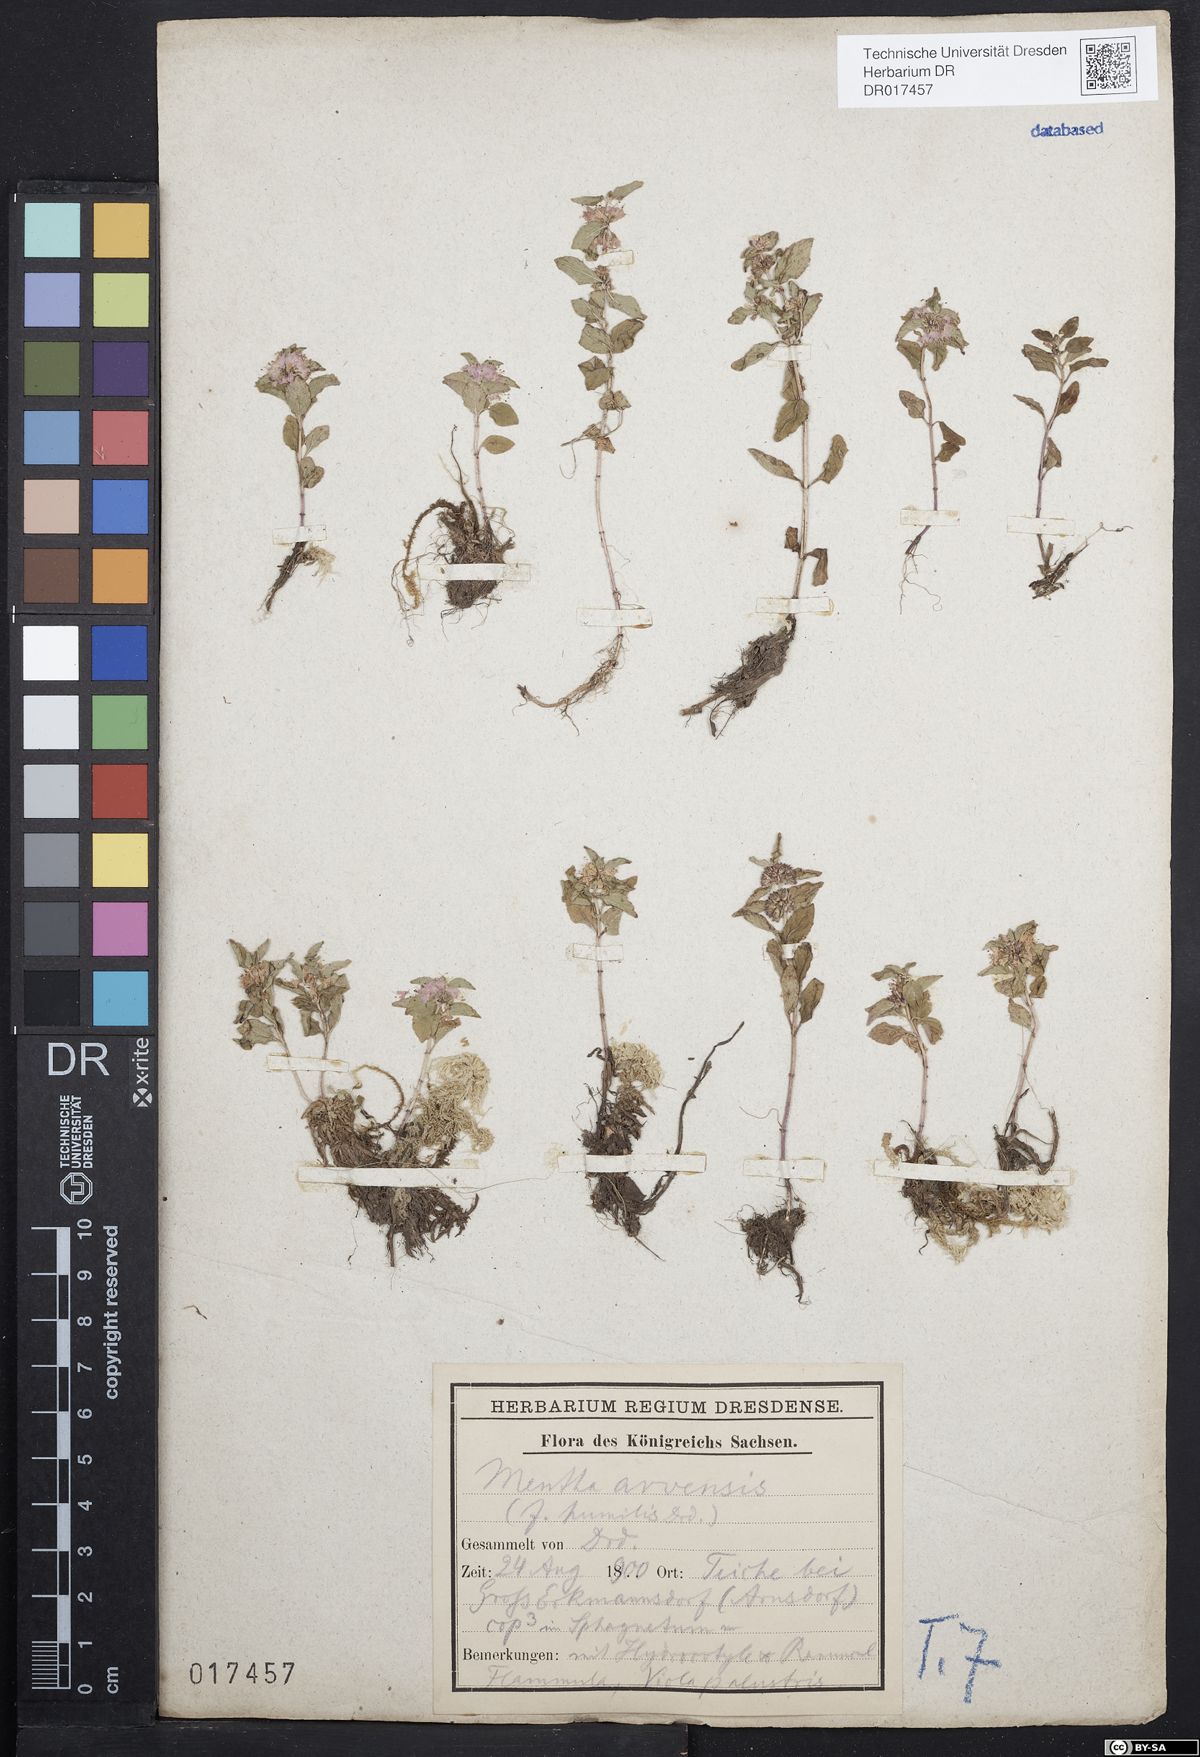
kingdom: Plantae
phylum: Tracheophyta
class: Magnoliopsida
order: Lamiales
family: Lamiaceae
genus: Mentha
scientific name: Mentha arvensis
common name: Corn mint
